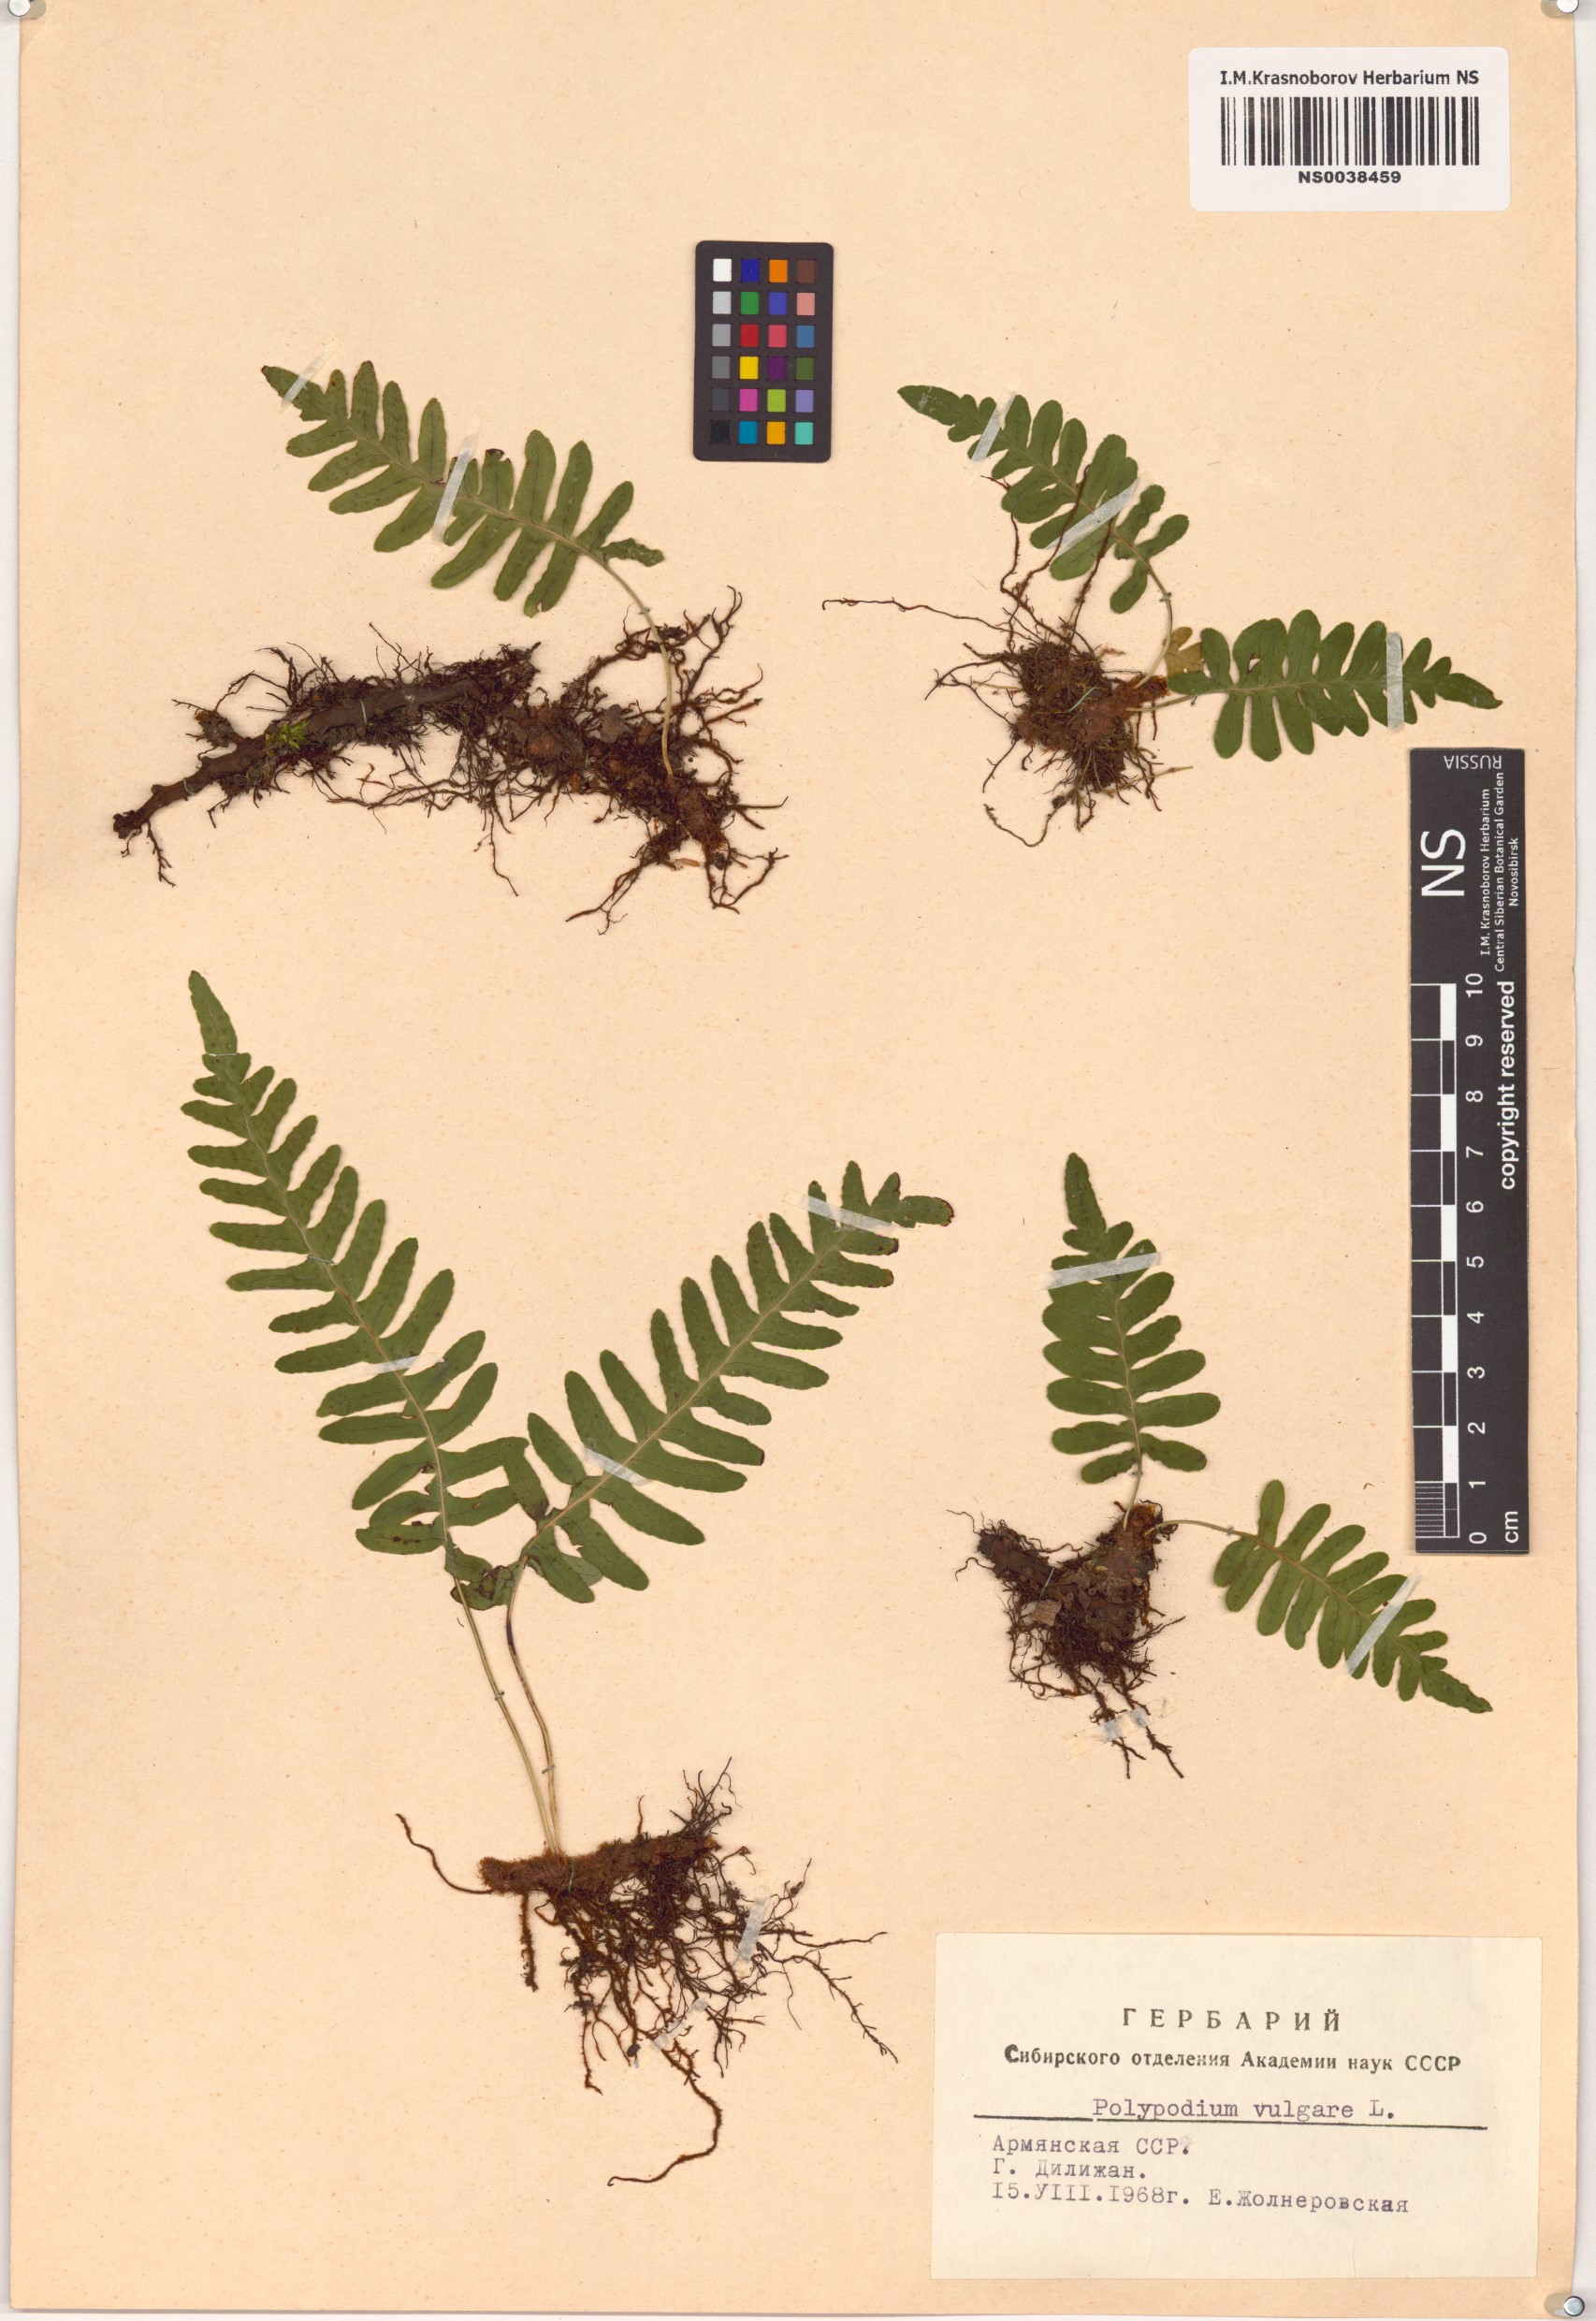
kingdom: Plantae
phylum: Tracheophyta
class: Polypodiopsida
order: Polypodiales
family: Polypodiaceae
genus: Polypodium
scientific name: Polypodium vulgare
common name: Common polypody
